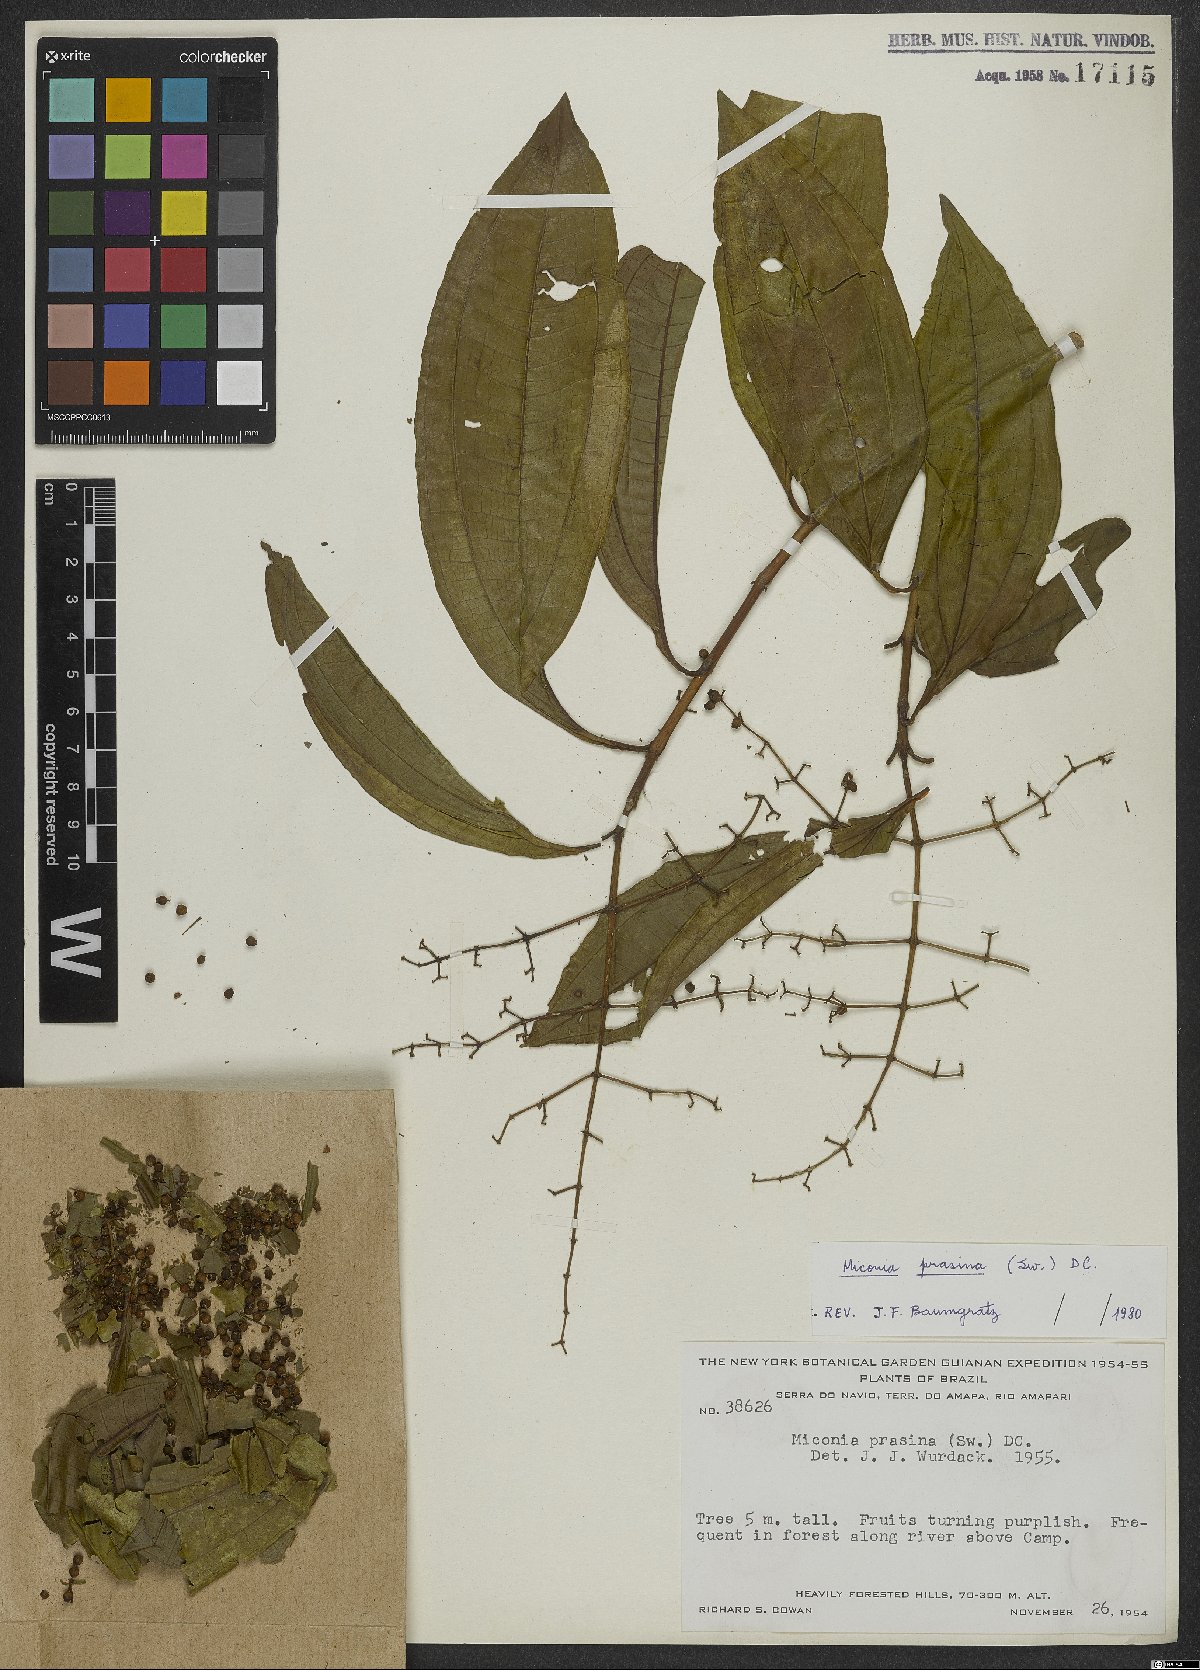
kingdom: Plantae
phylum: Tracheophyta
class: Magnoliopsida
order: Myrtales
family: Melastomataceae
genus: Miconia
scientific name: Miconia prasina
